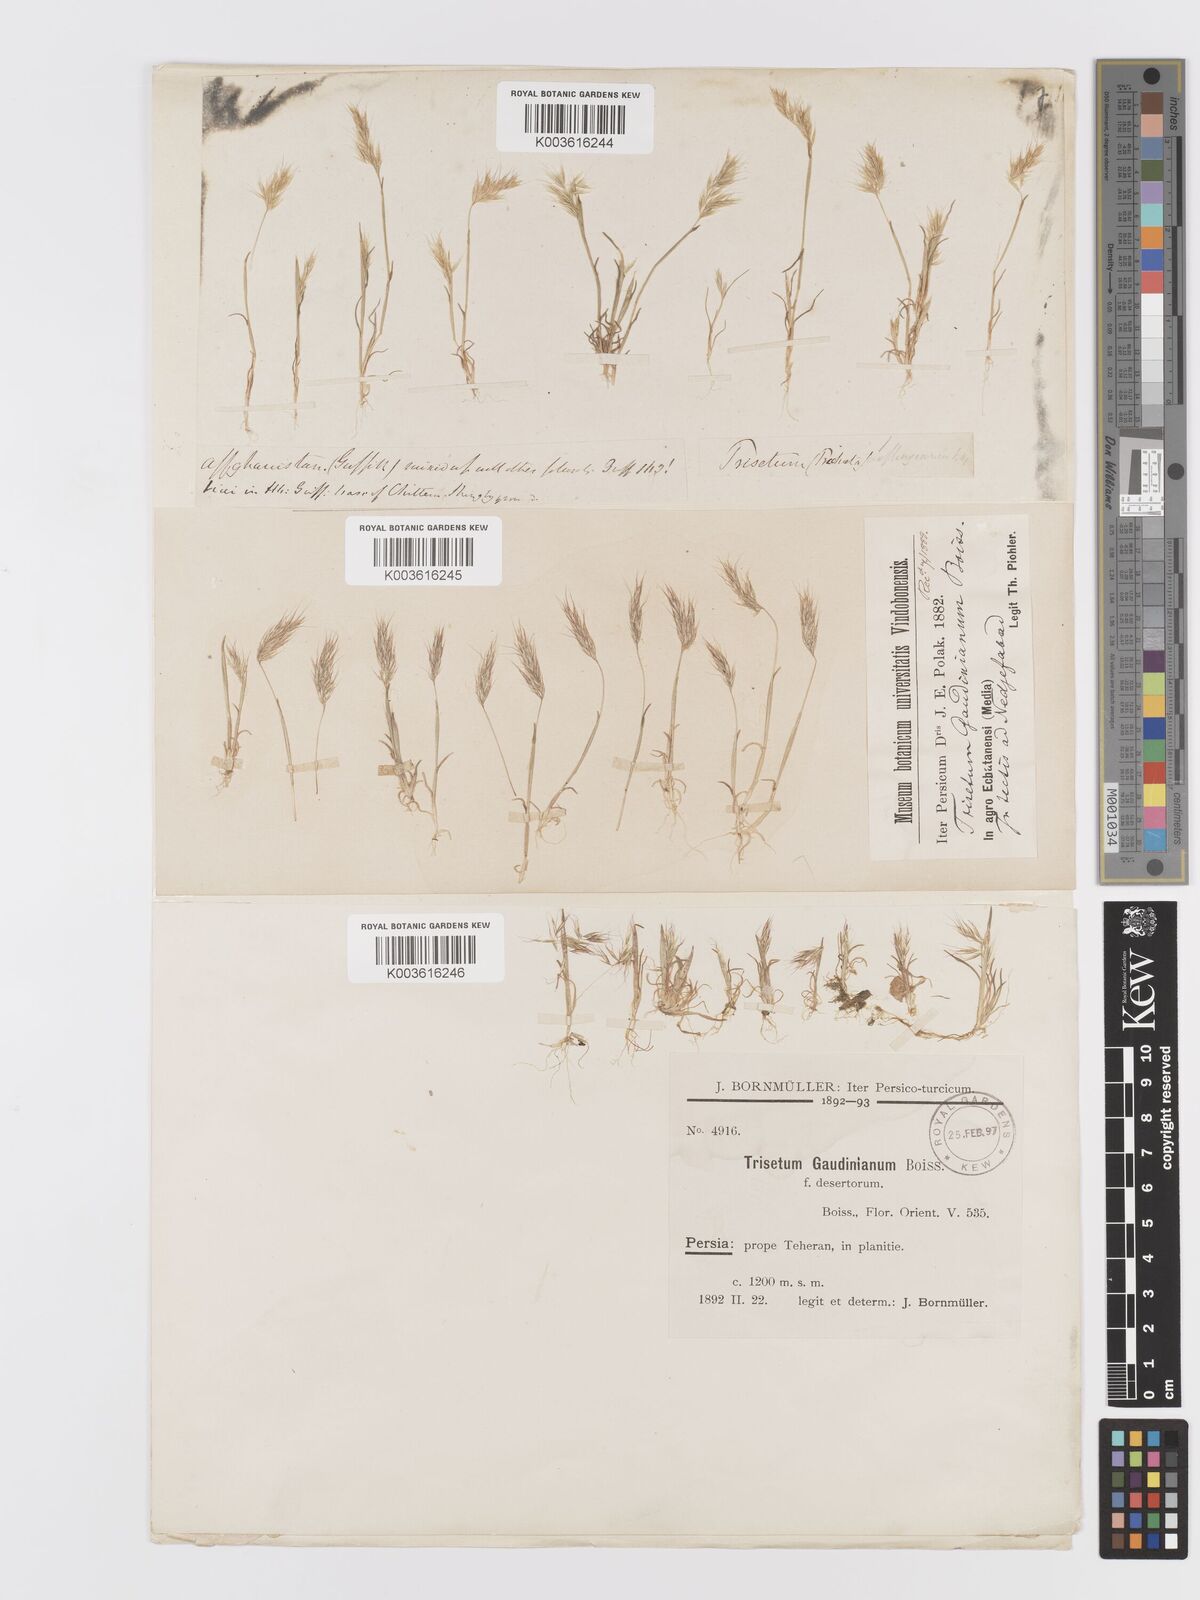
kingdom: Plantae
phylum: Tracheophyta
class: Liliopsida
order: Poales
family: Poaceae
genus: Trisetaria
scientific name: Trisetaria loeflingiana
